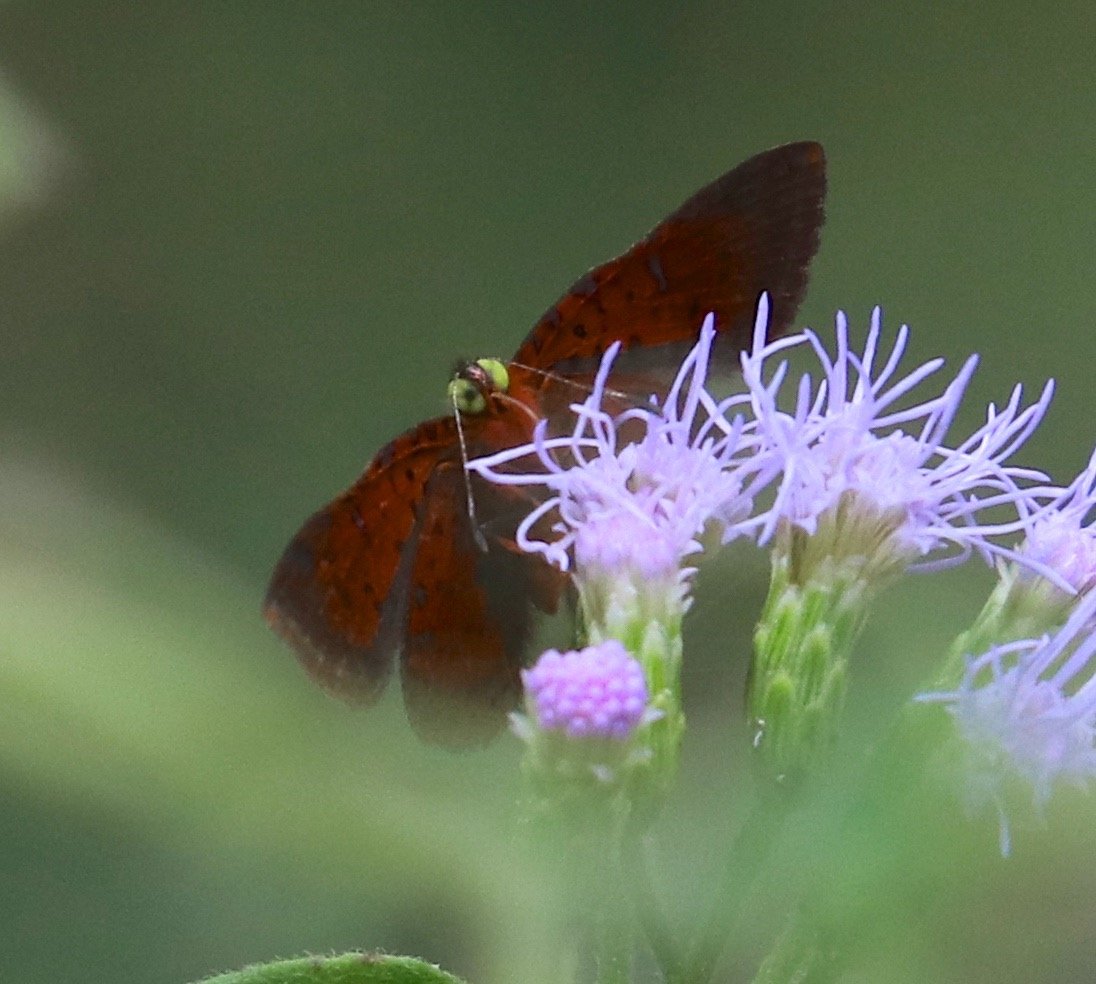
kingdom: Animalia
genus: Caria
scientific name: Caria ino
